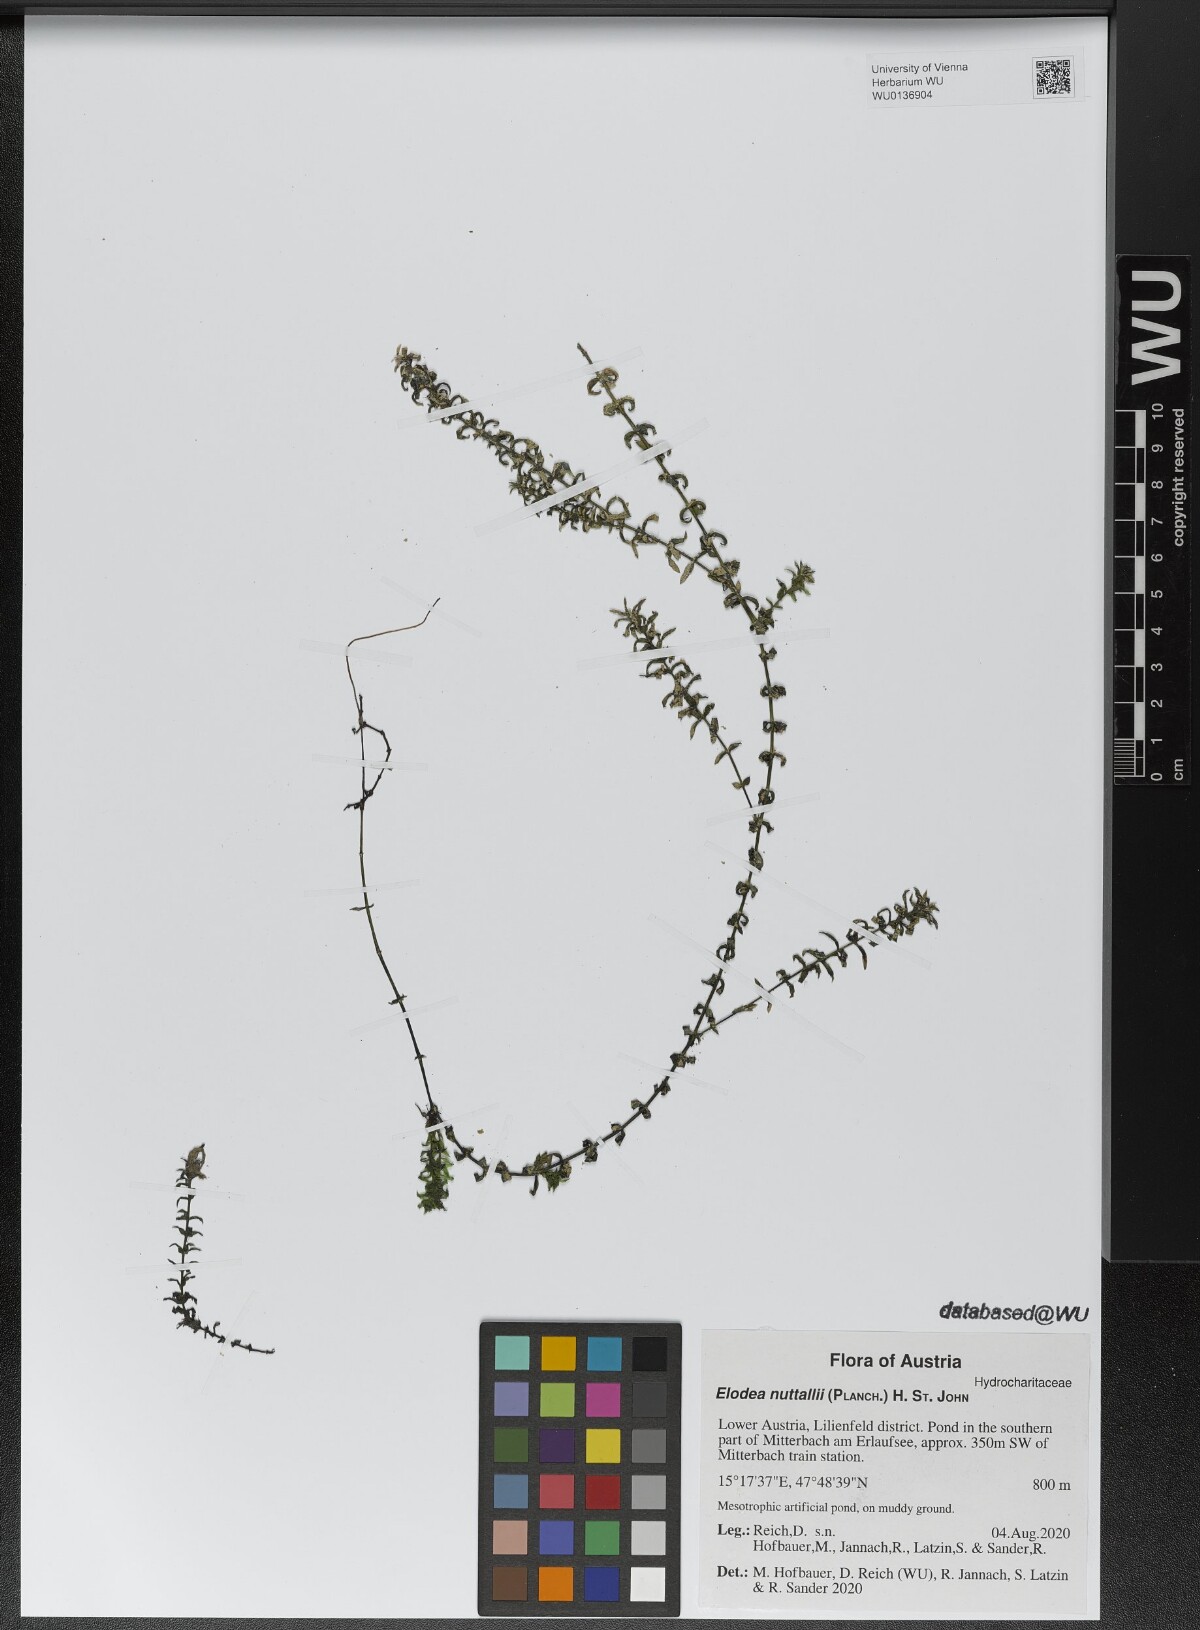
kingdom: Plantae
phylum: Tracheophyta
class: Liliopsida
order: Alismatales
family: Hydrocharitaceae
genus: Elodea
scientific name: Elodea nuttallii
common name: Nuttall's waterweed
